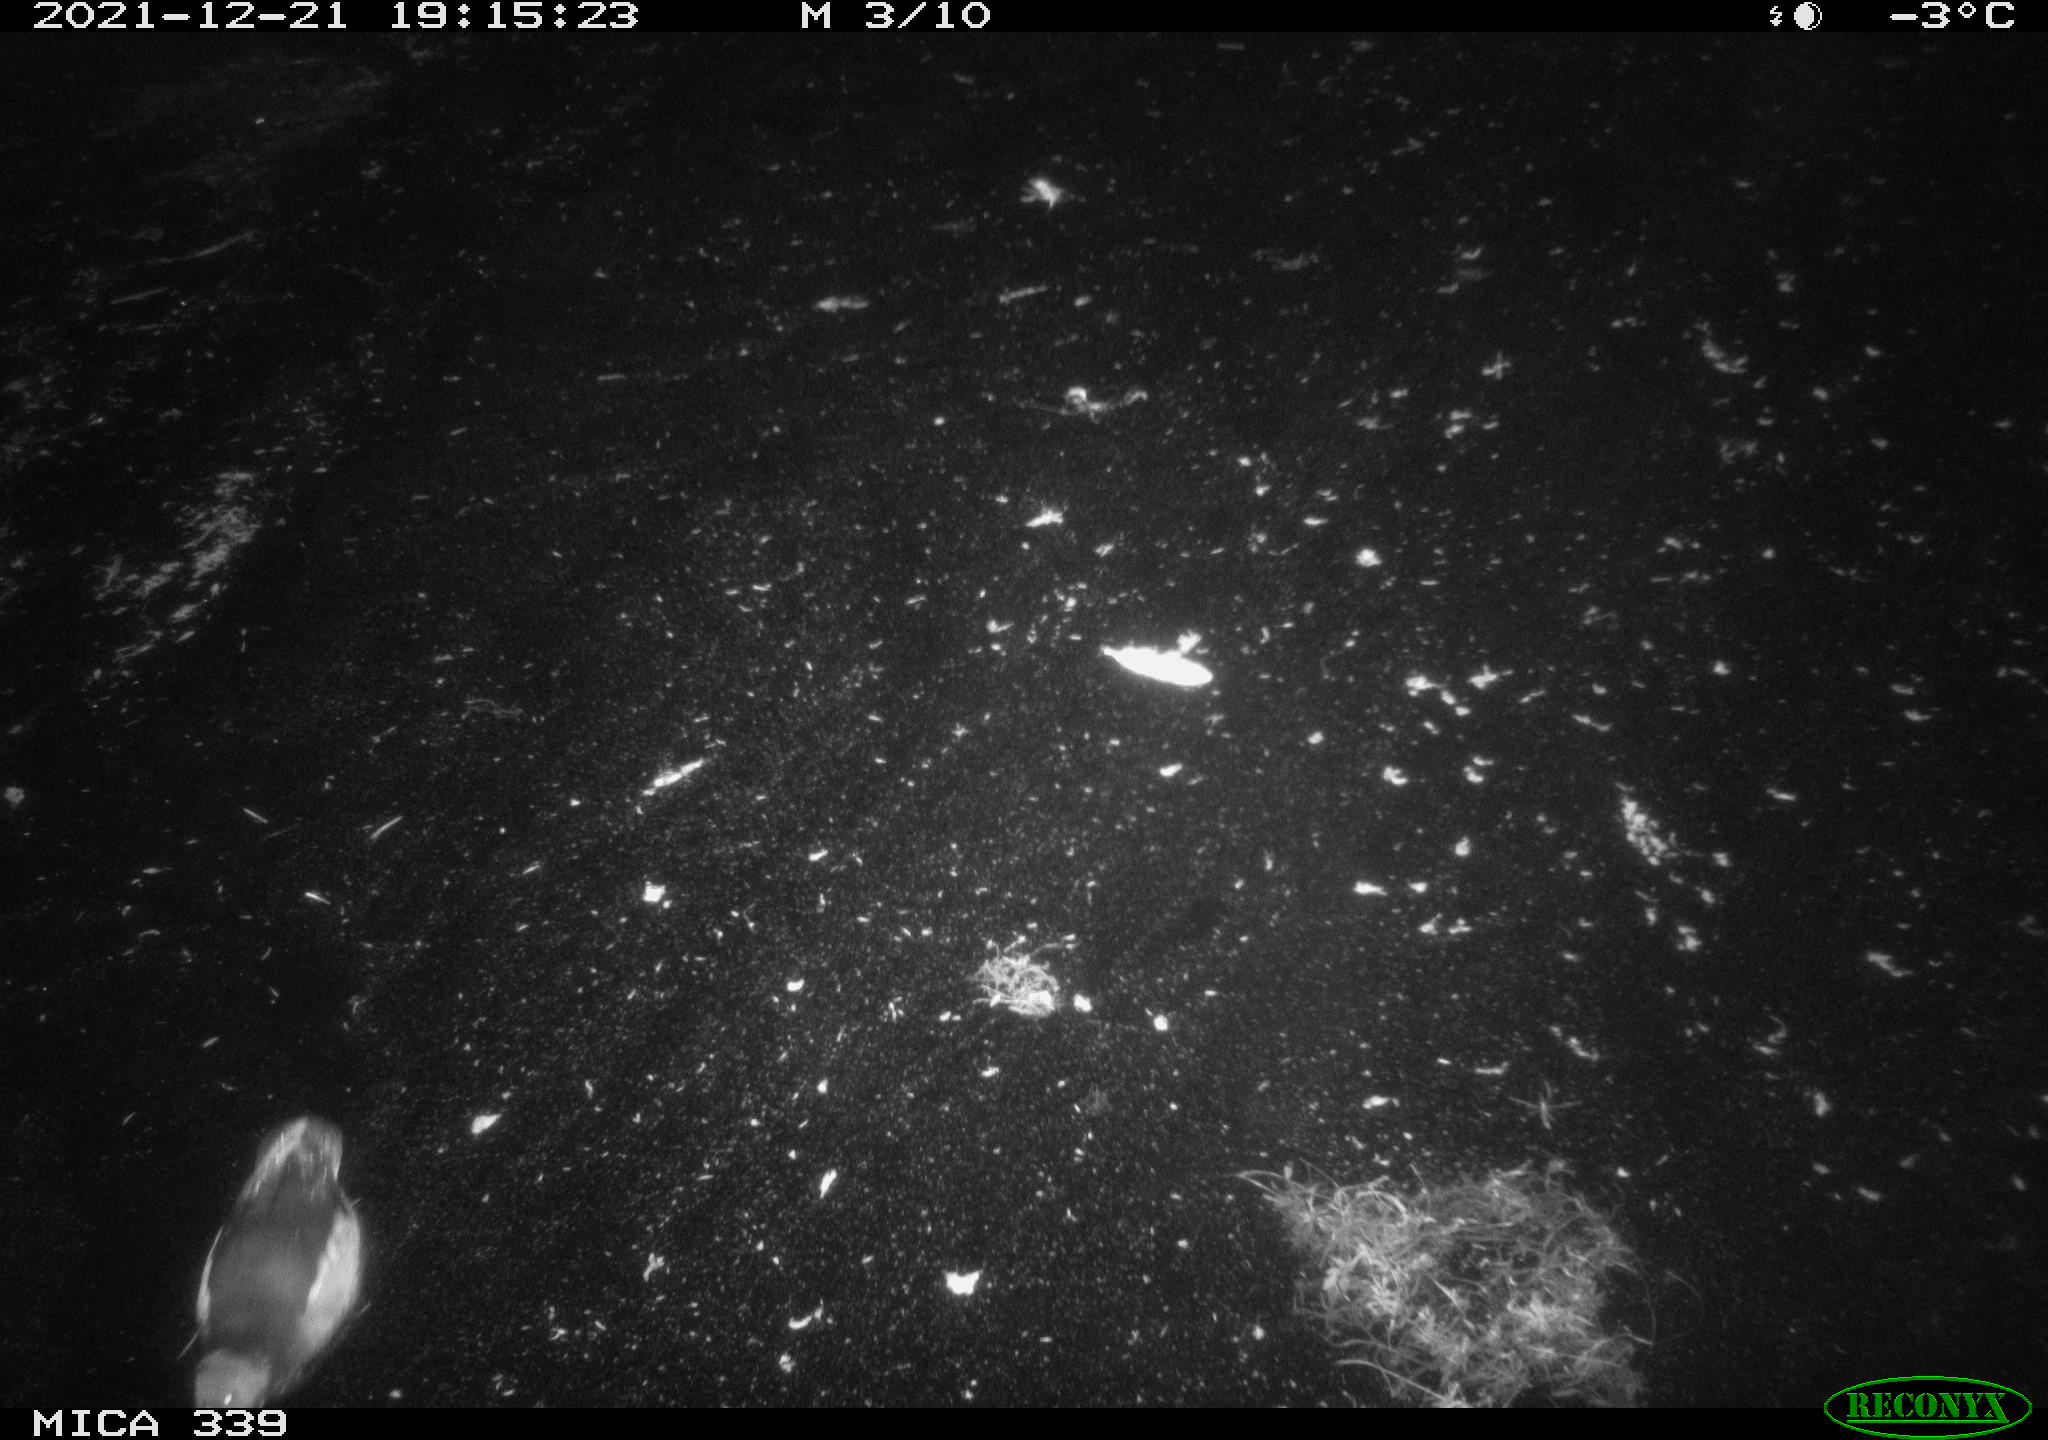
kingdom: Animalia
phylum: Chordata
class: Aves
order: Gruiformes
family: Rallidae
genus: Gallinula
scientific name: Gallinula chloropus
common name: Common moorhen
